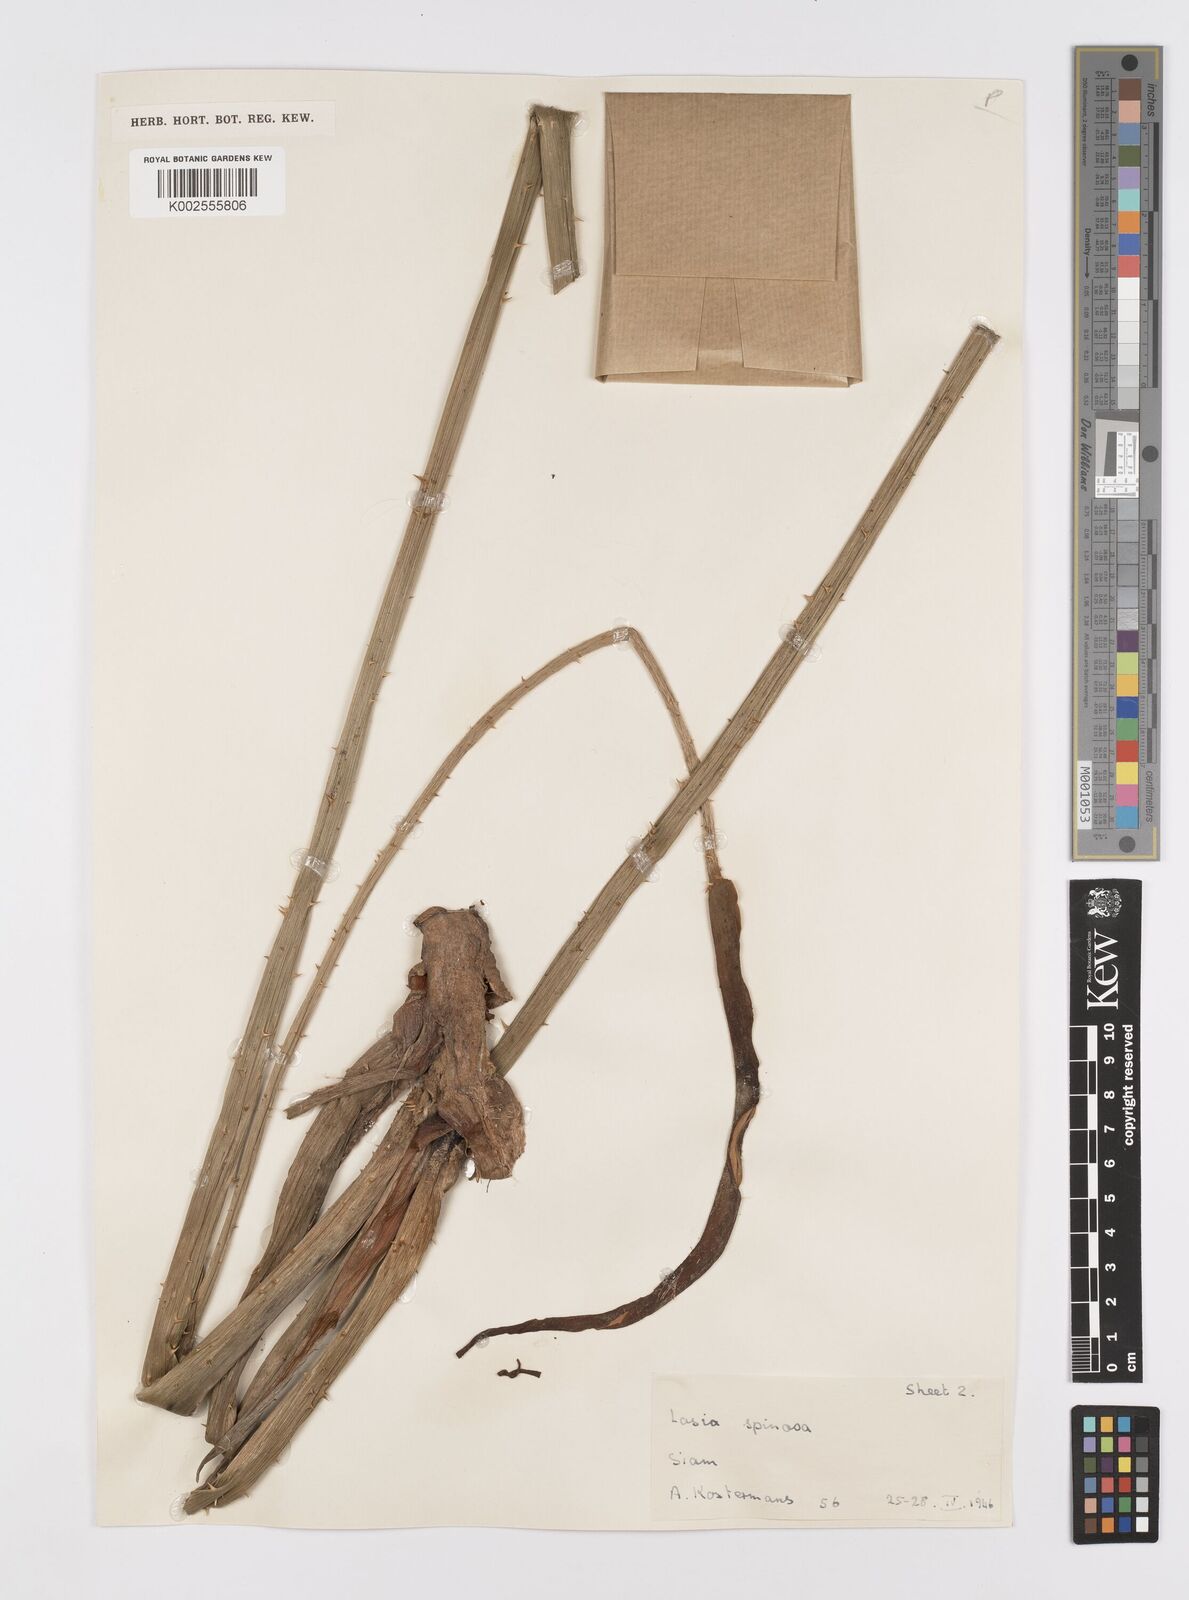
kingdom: Plantae
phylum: Tracheophyta
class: Liliopsida
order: Alismatales
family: Araceae
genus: Lasia
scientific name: Lasia spinosa
